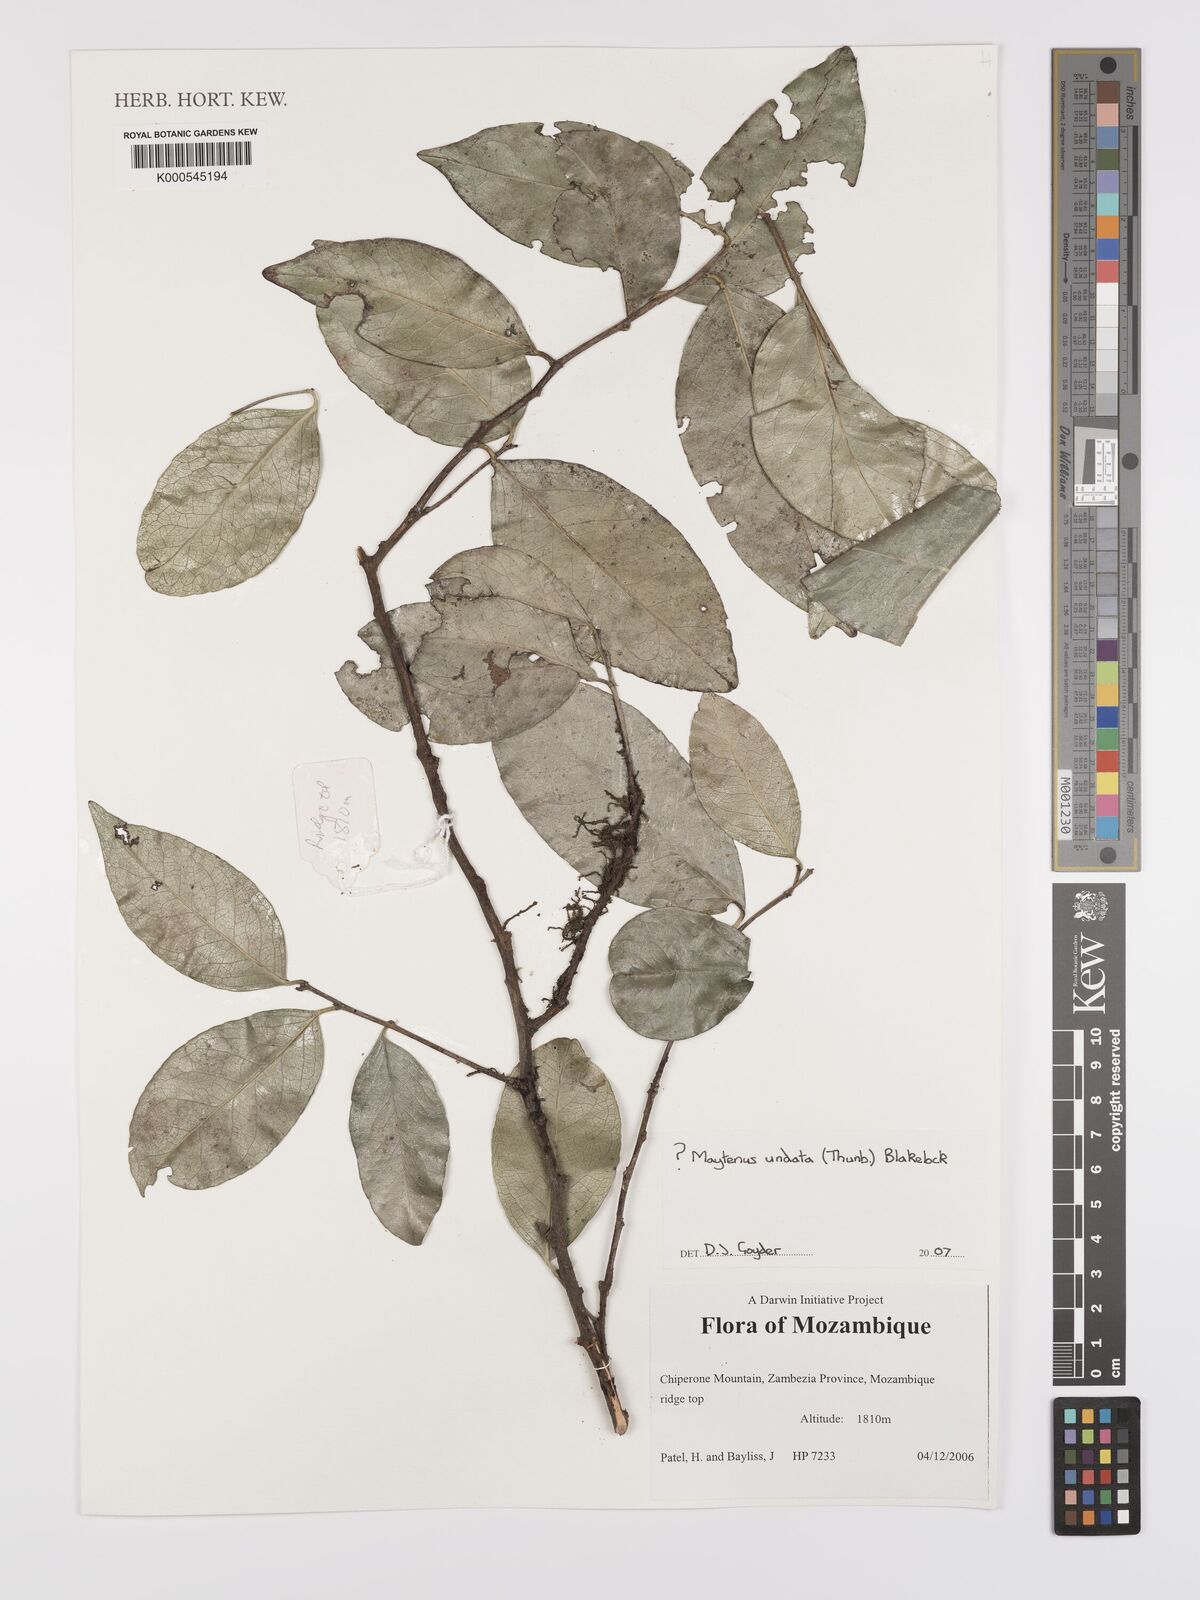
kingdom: Plantae
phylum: Tracheophyta
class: Magnoliopsida
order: Celastrales
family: Celastraceae
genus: Gymnosporia
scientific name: Gymnosporia undata
